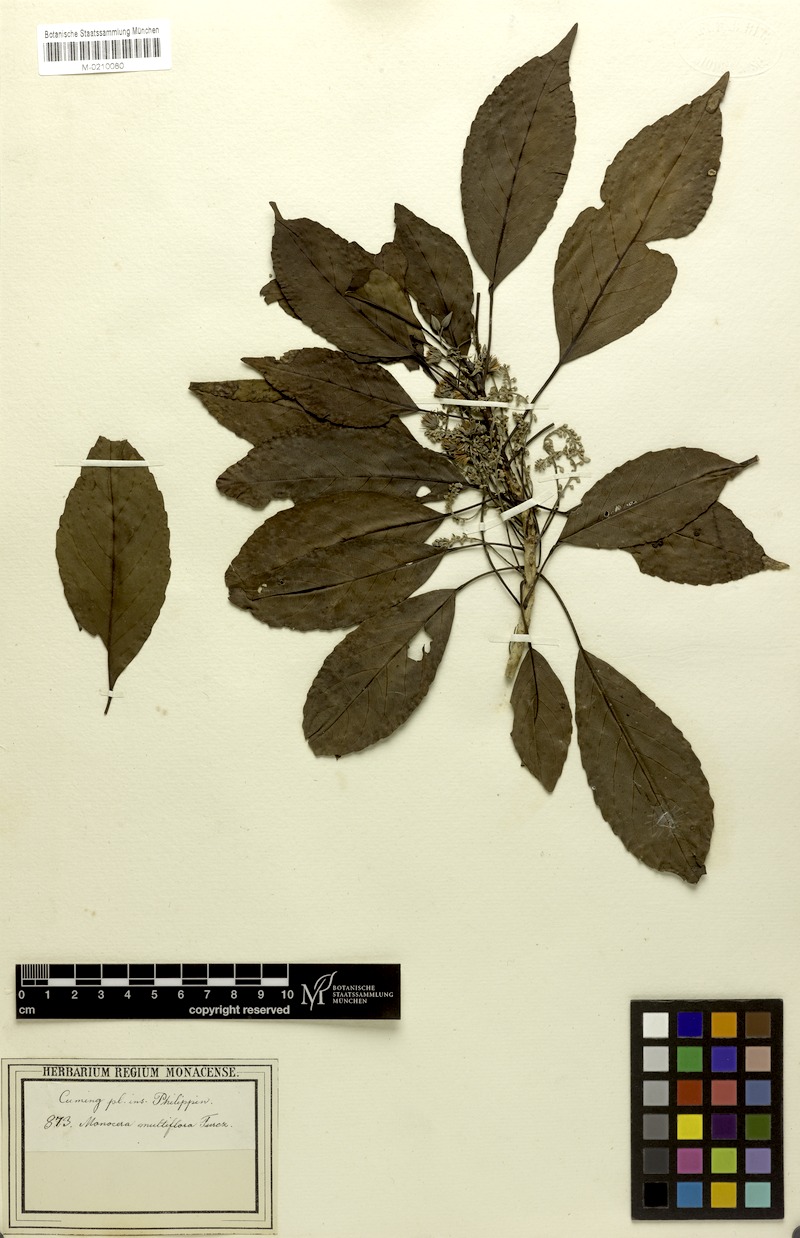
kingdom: Plantae
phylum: Tracheophyta
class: Magnoliopsida
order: Oxalidales
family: Elaeocarpaceae
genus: Elaeocarpus
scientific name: Elaeocarpus multiflorus
